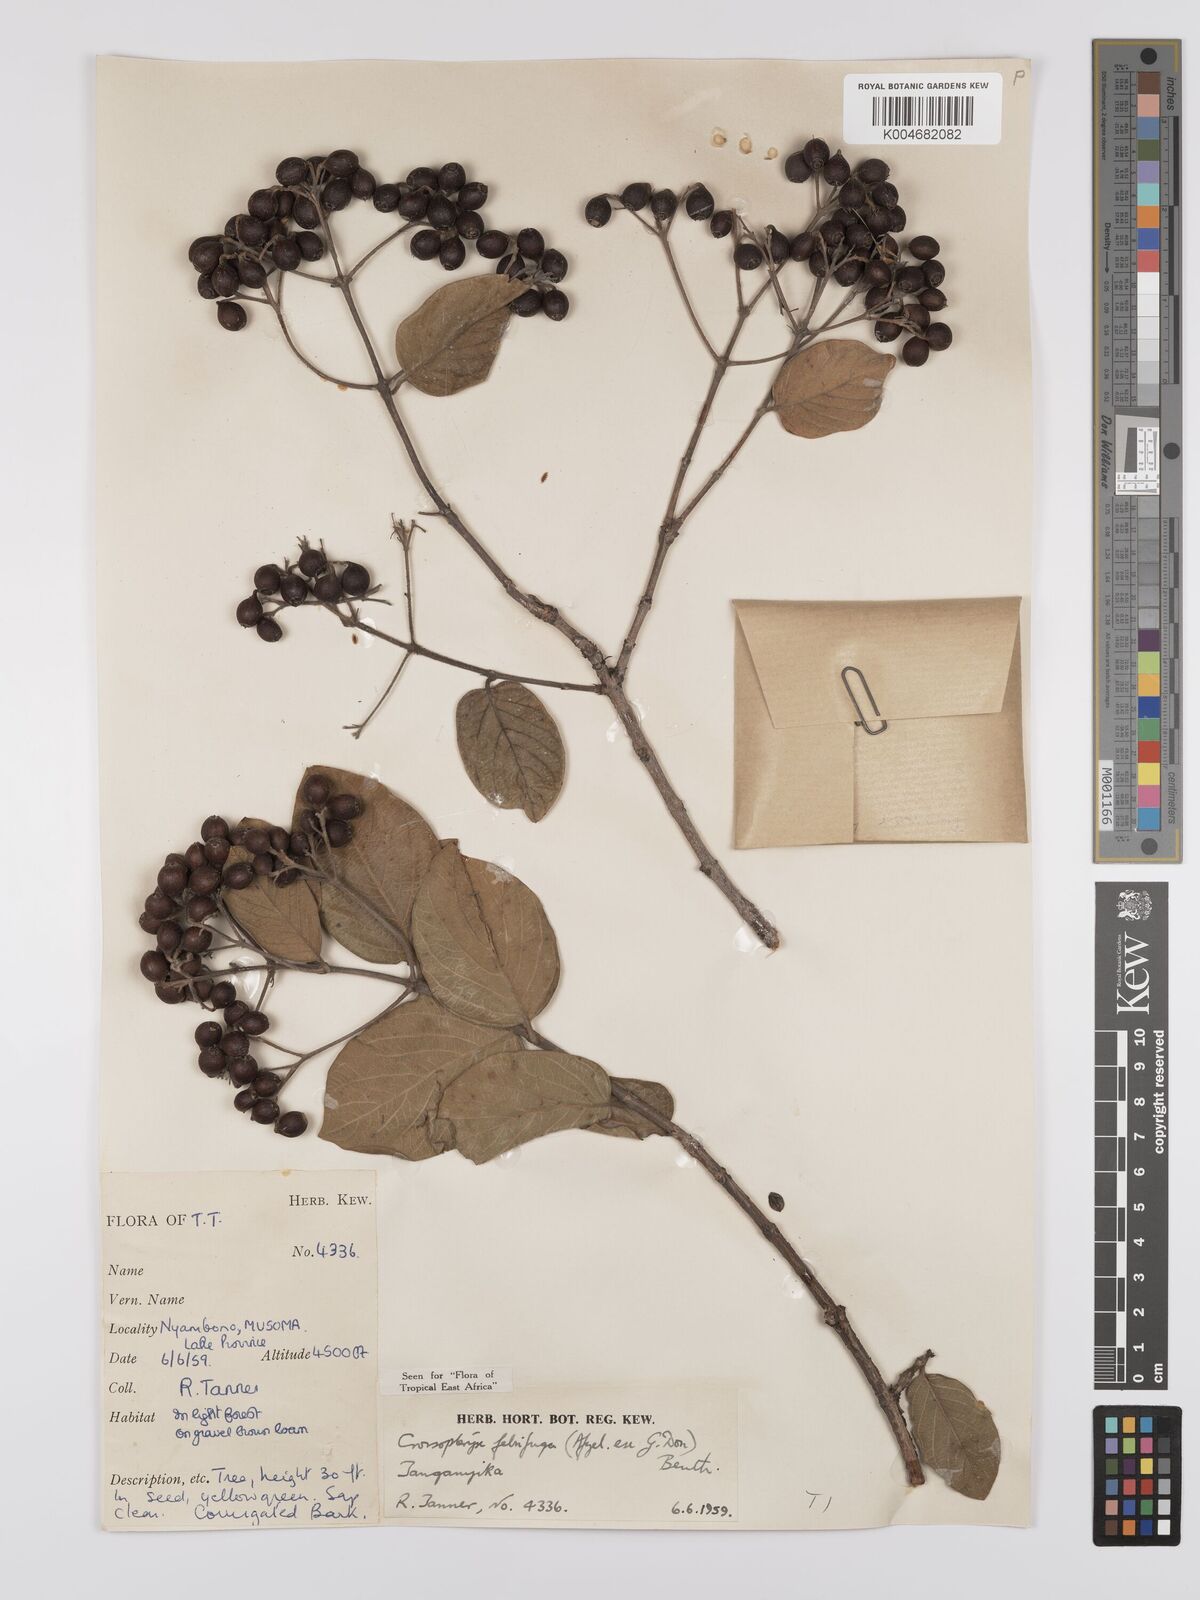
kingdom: Plantae
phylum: Tracheophyta
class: Magnoliopsida
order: Gentianales
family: Rubiaceae
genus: Crossopteryx
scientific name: Crossopteryx febrifuga
